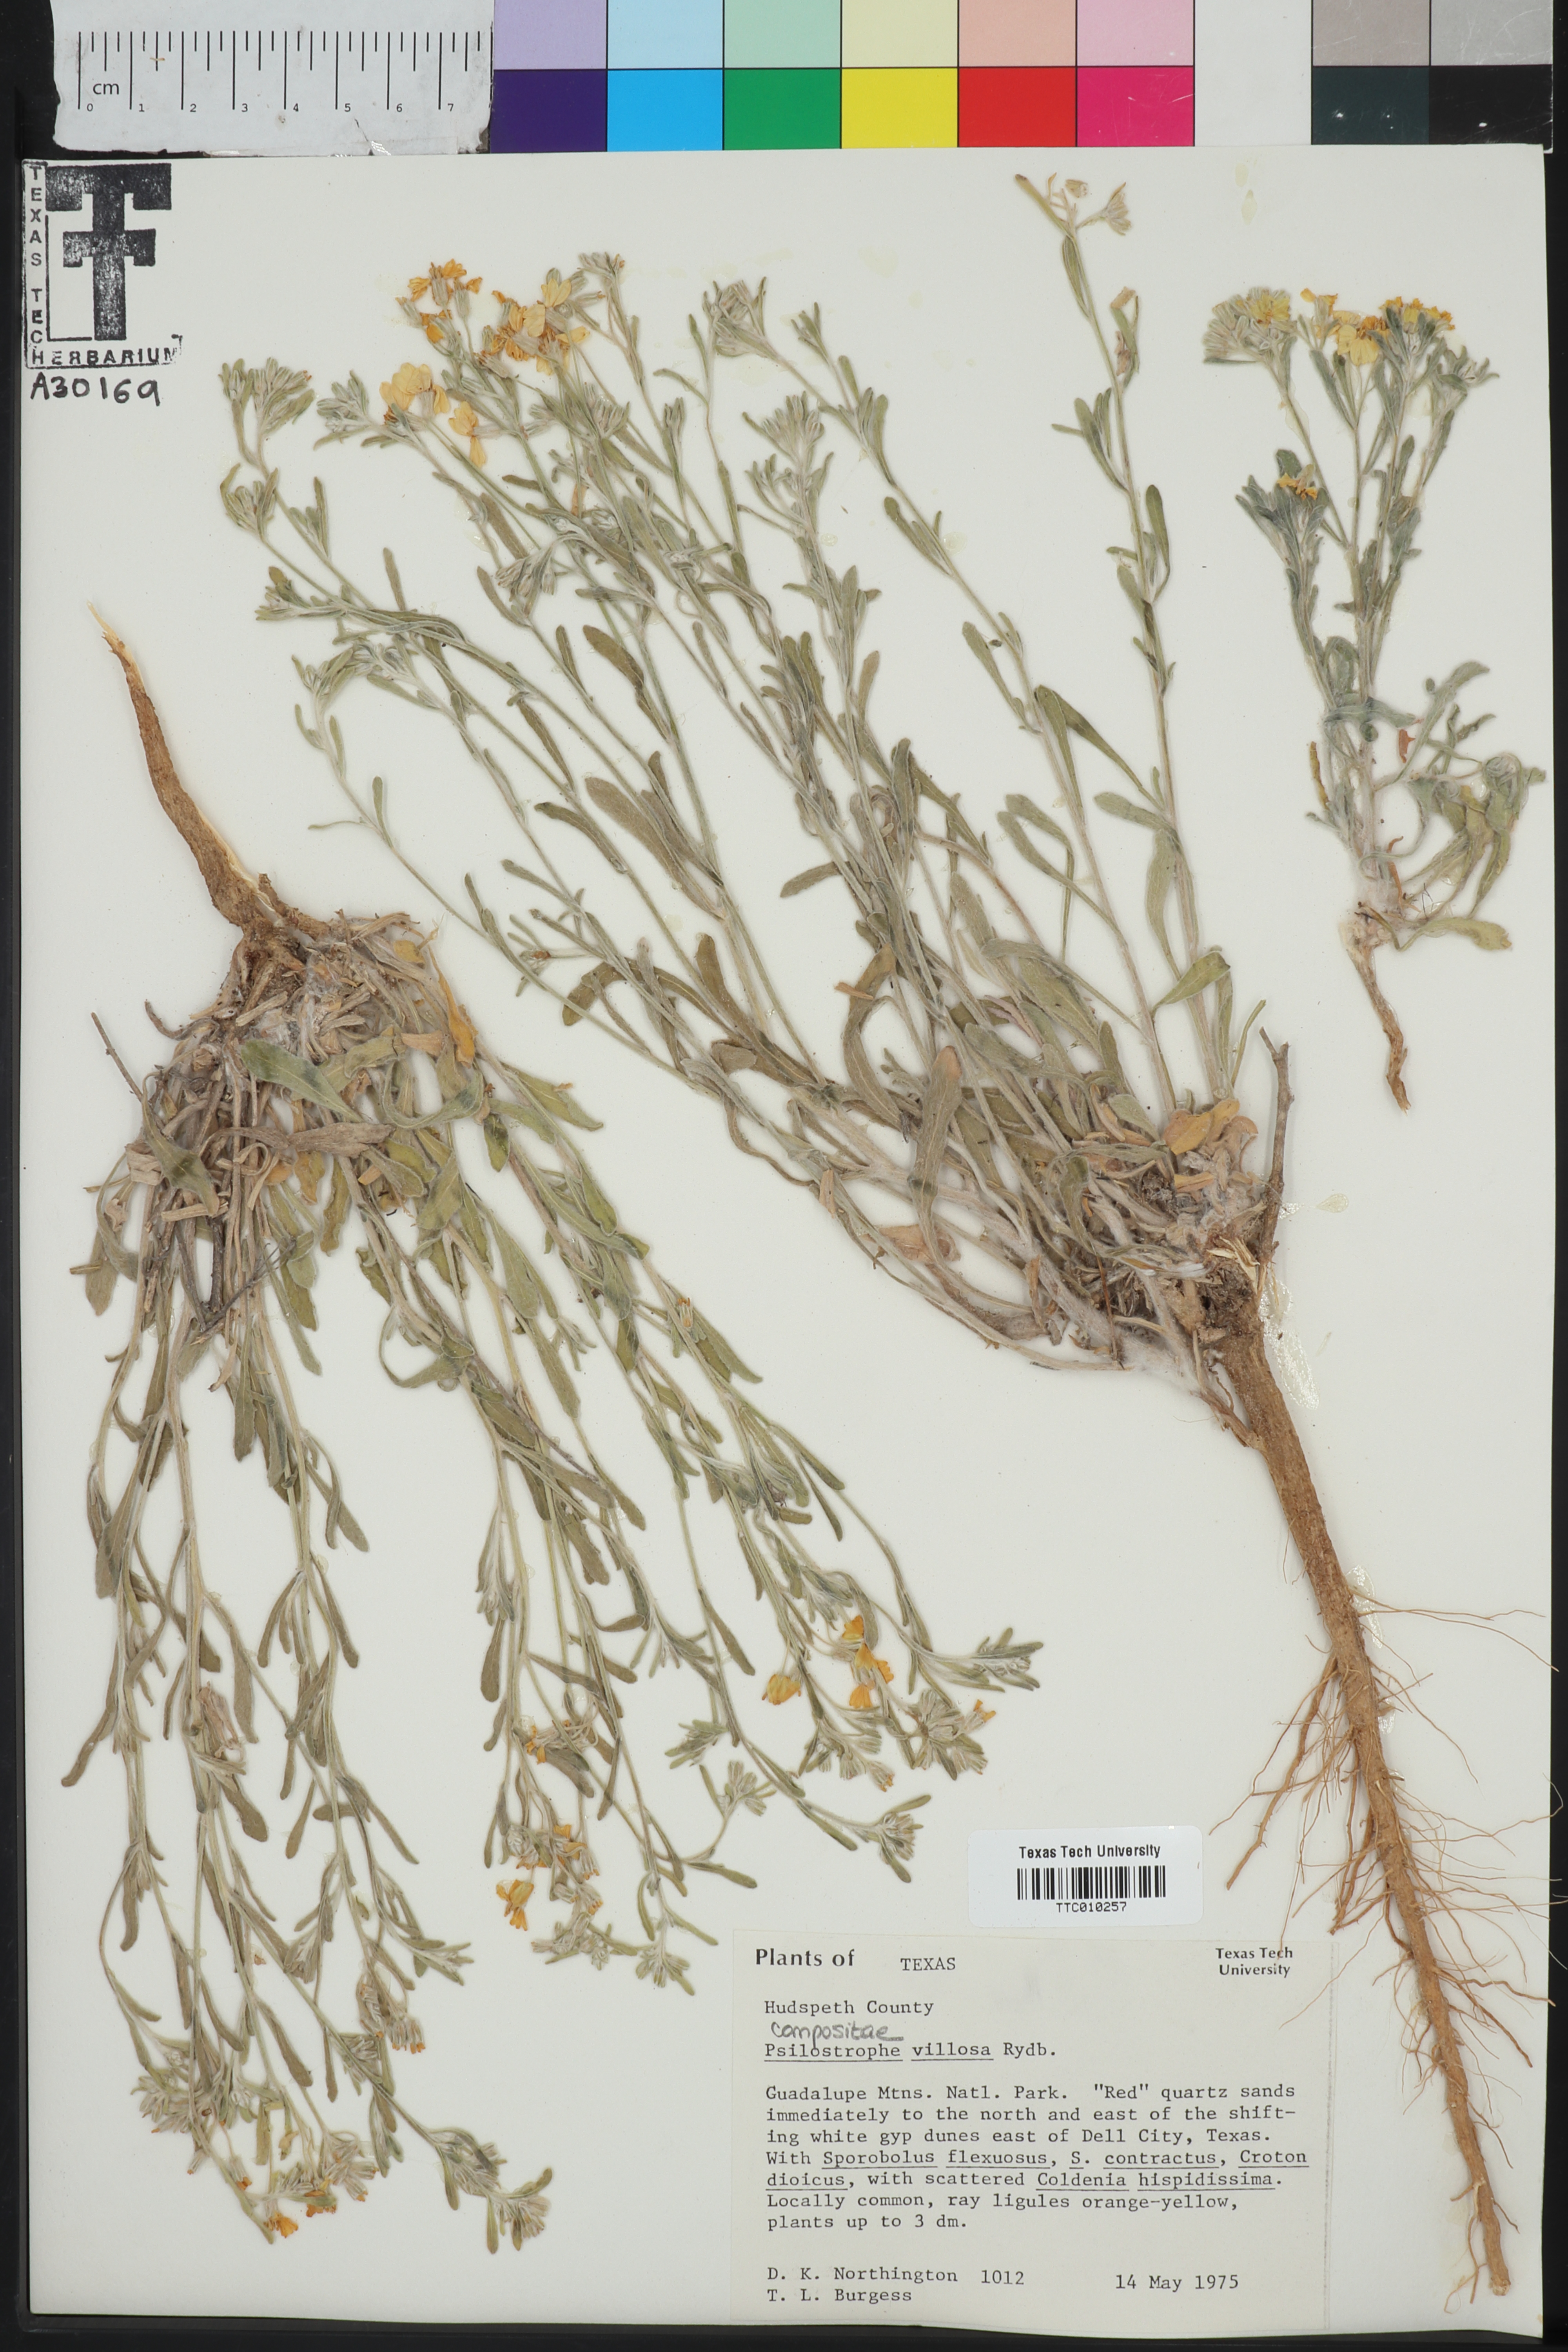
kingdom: Plantae
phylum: Tracheophyta
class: Magnoliopsida
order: Asterales
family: Asteraceae
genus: Psilostrophe
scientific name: Psilostrophe villosa
